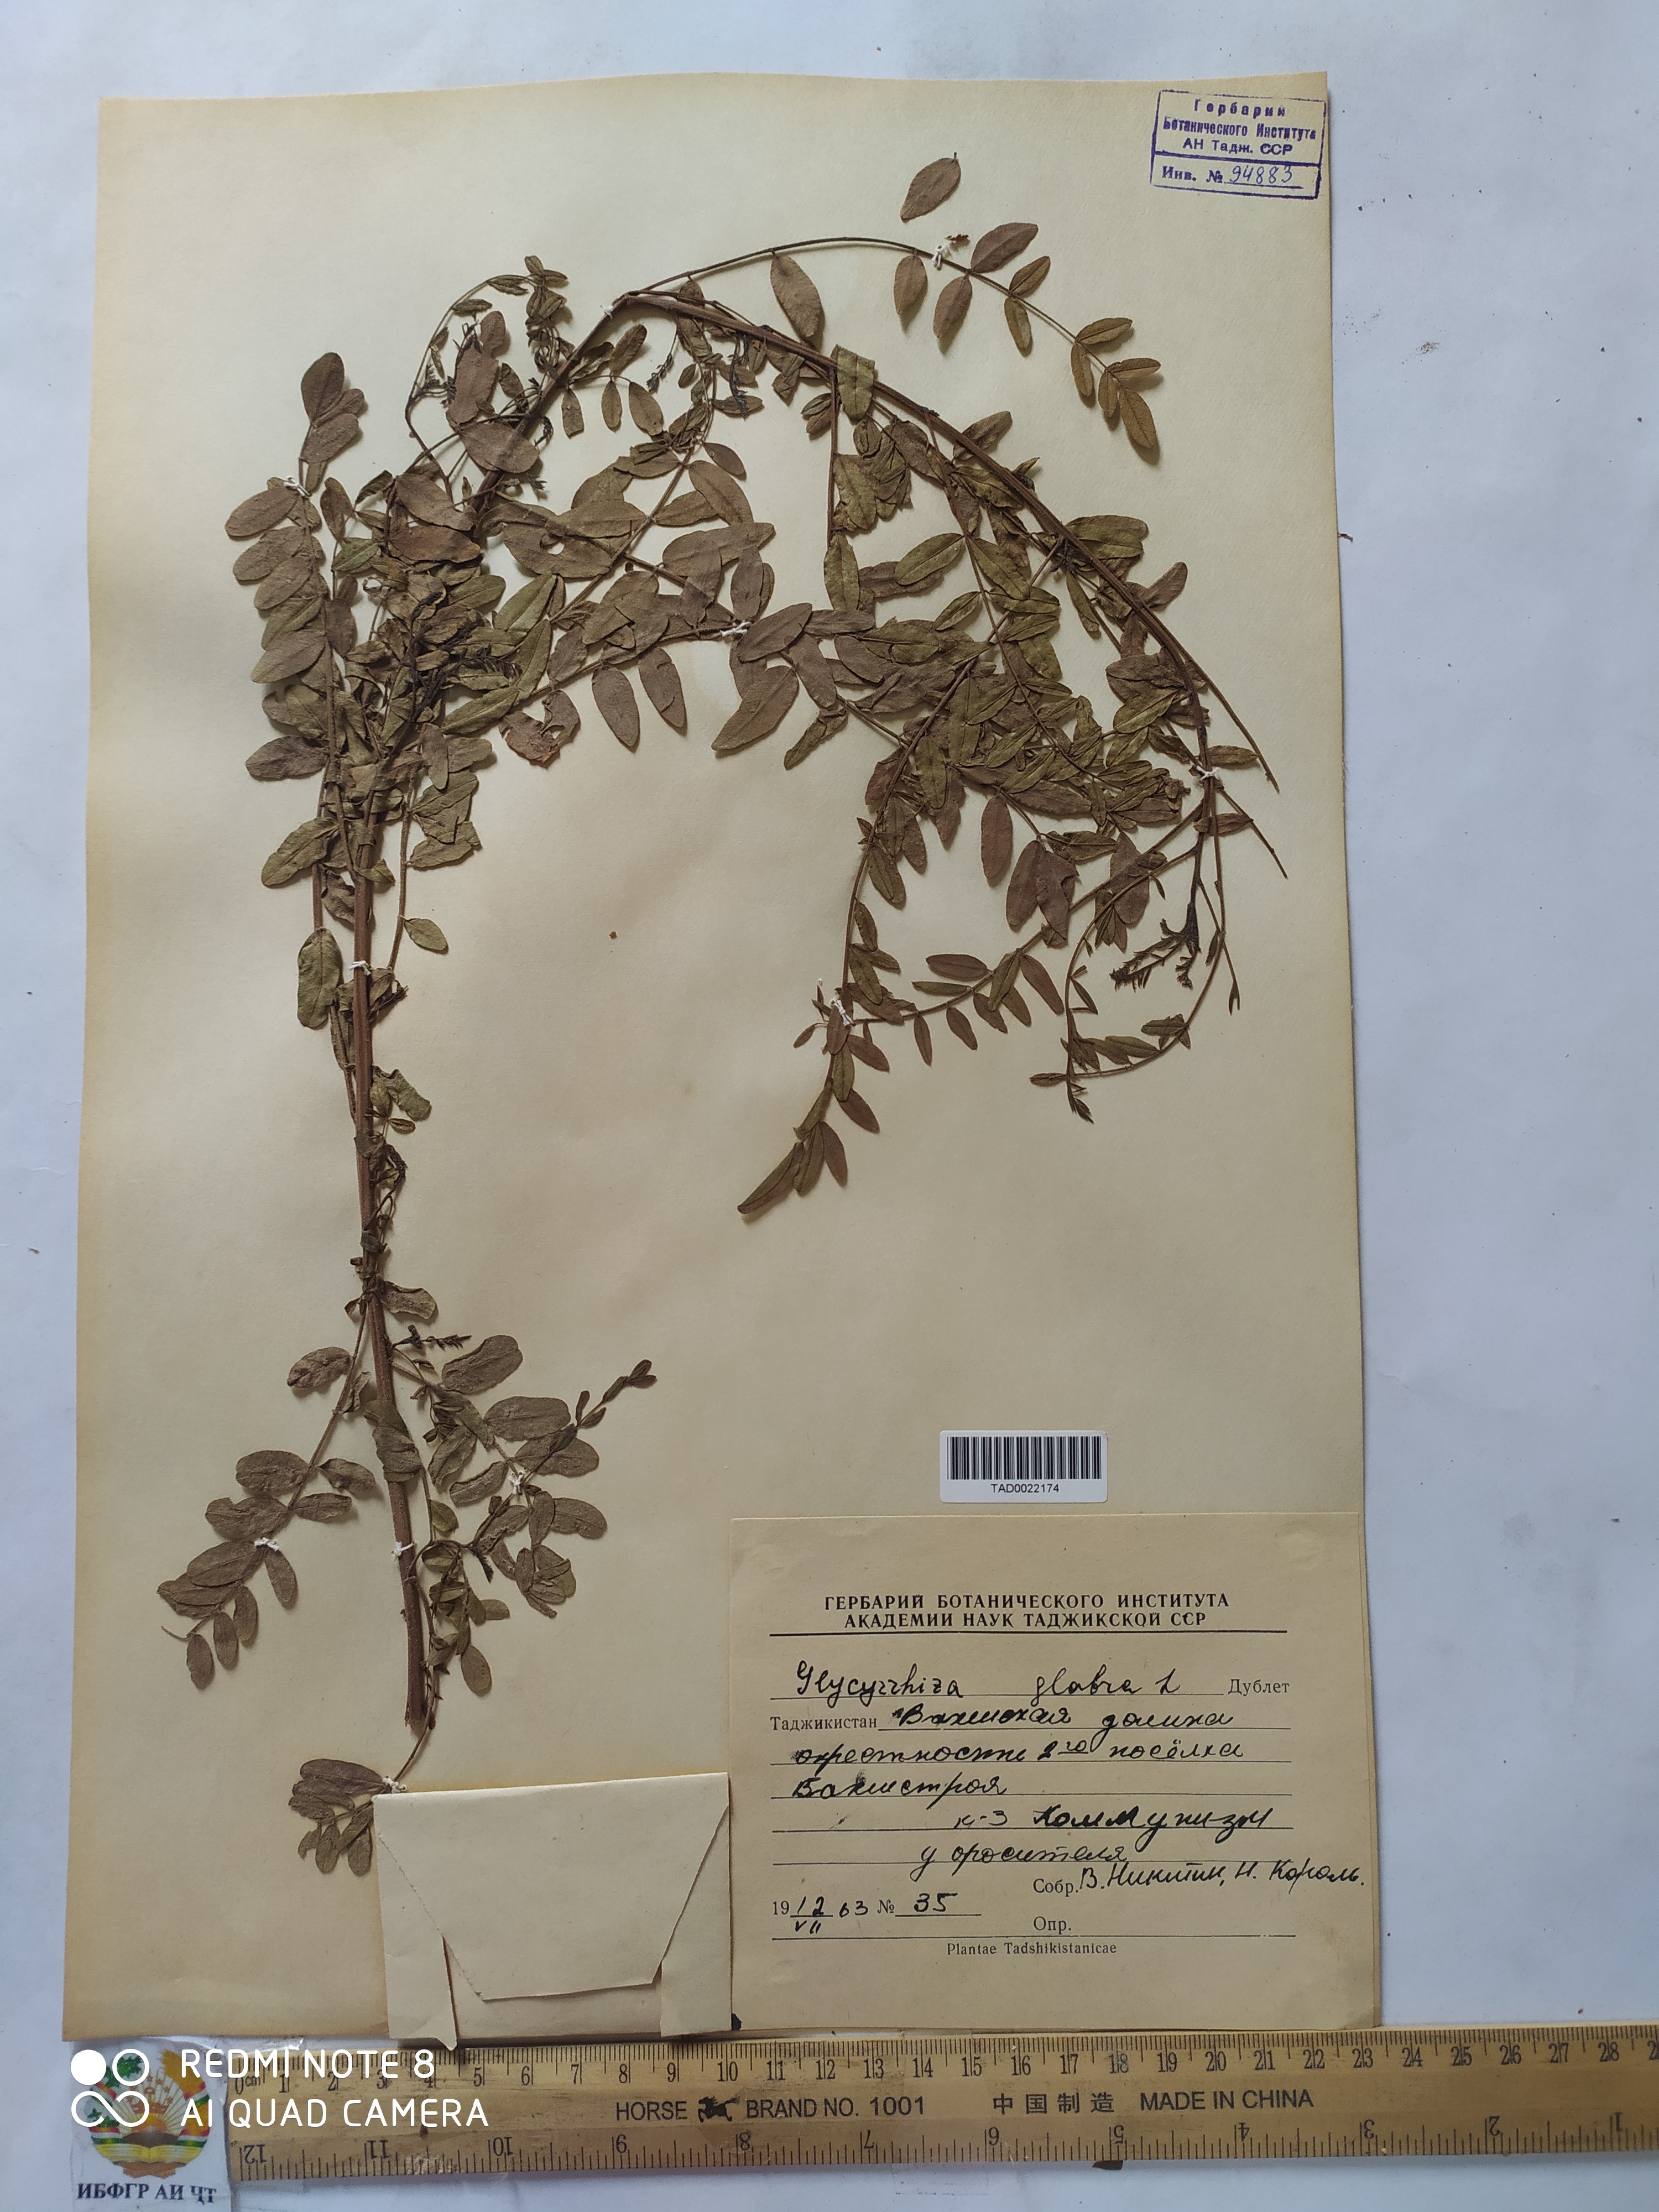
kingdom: Plantae
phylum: Tracheophyta
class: Magnoliopsida
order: Fabales
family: Fabaceae
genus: Glycyrrhiza
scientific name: Glycyrrhiza glabra
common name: Liquorice
